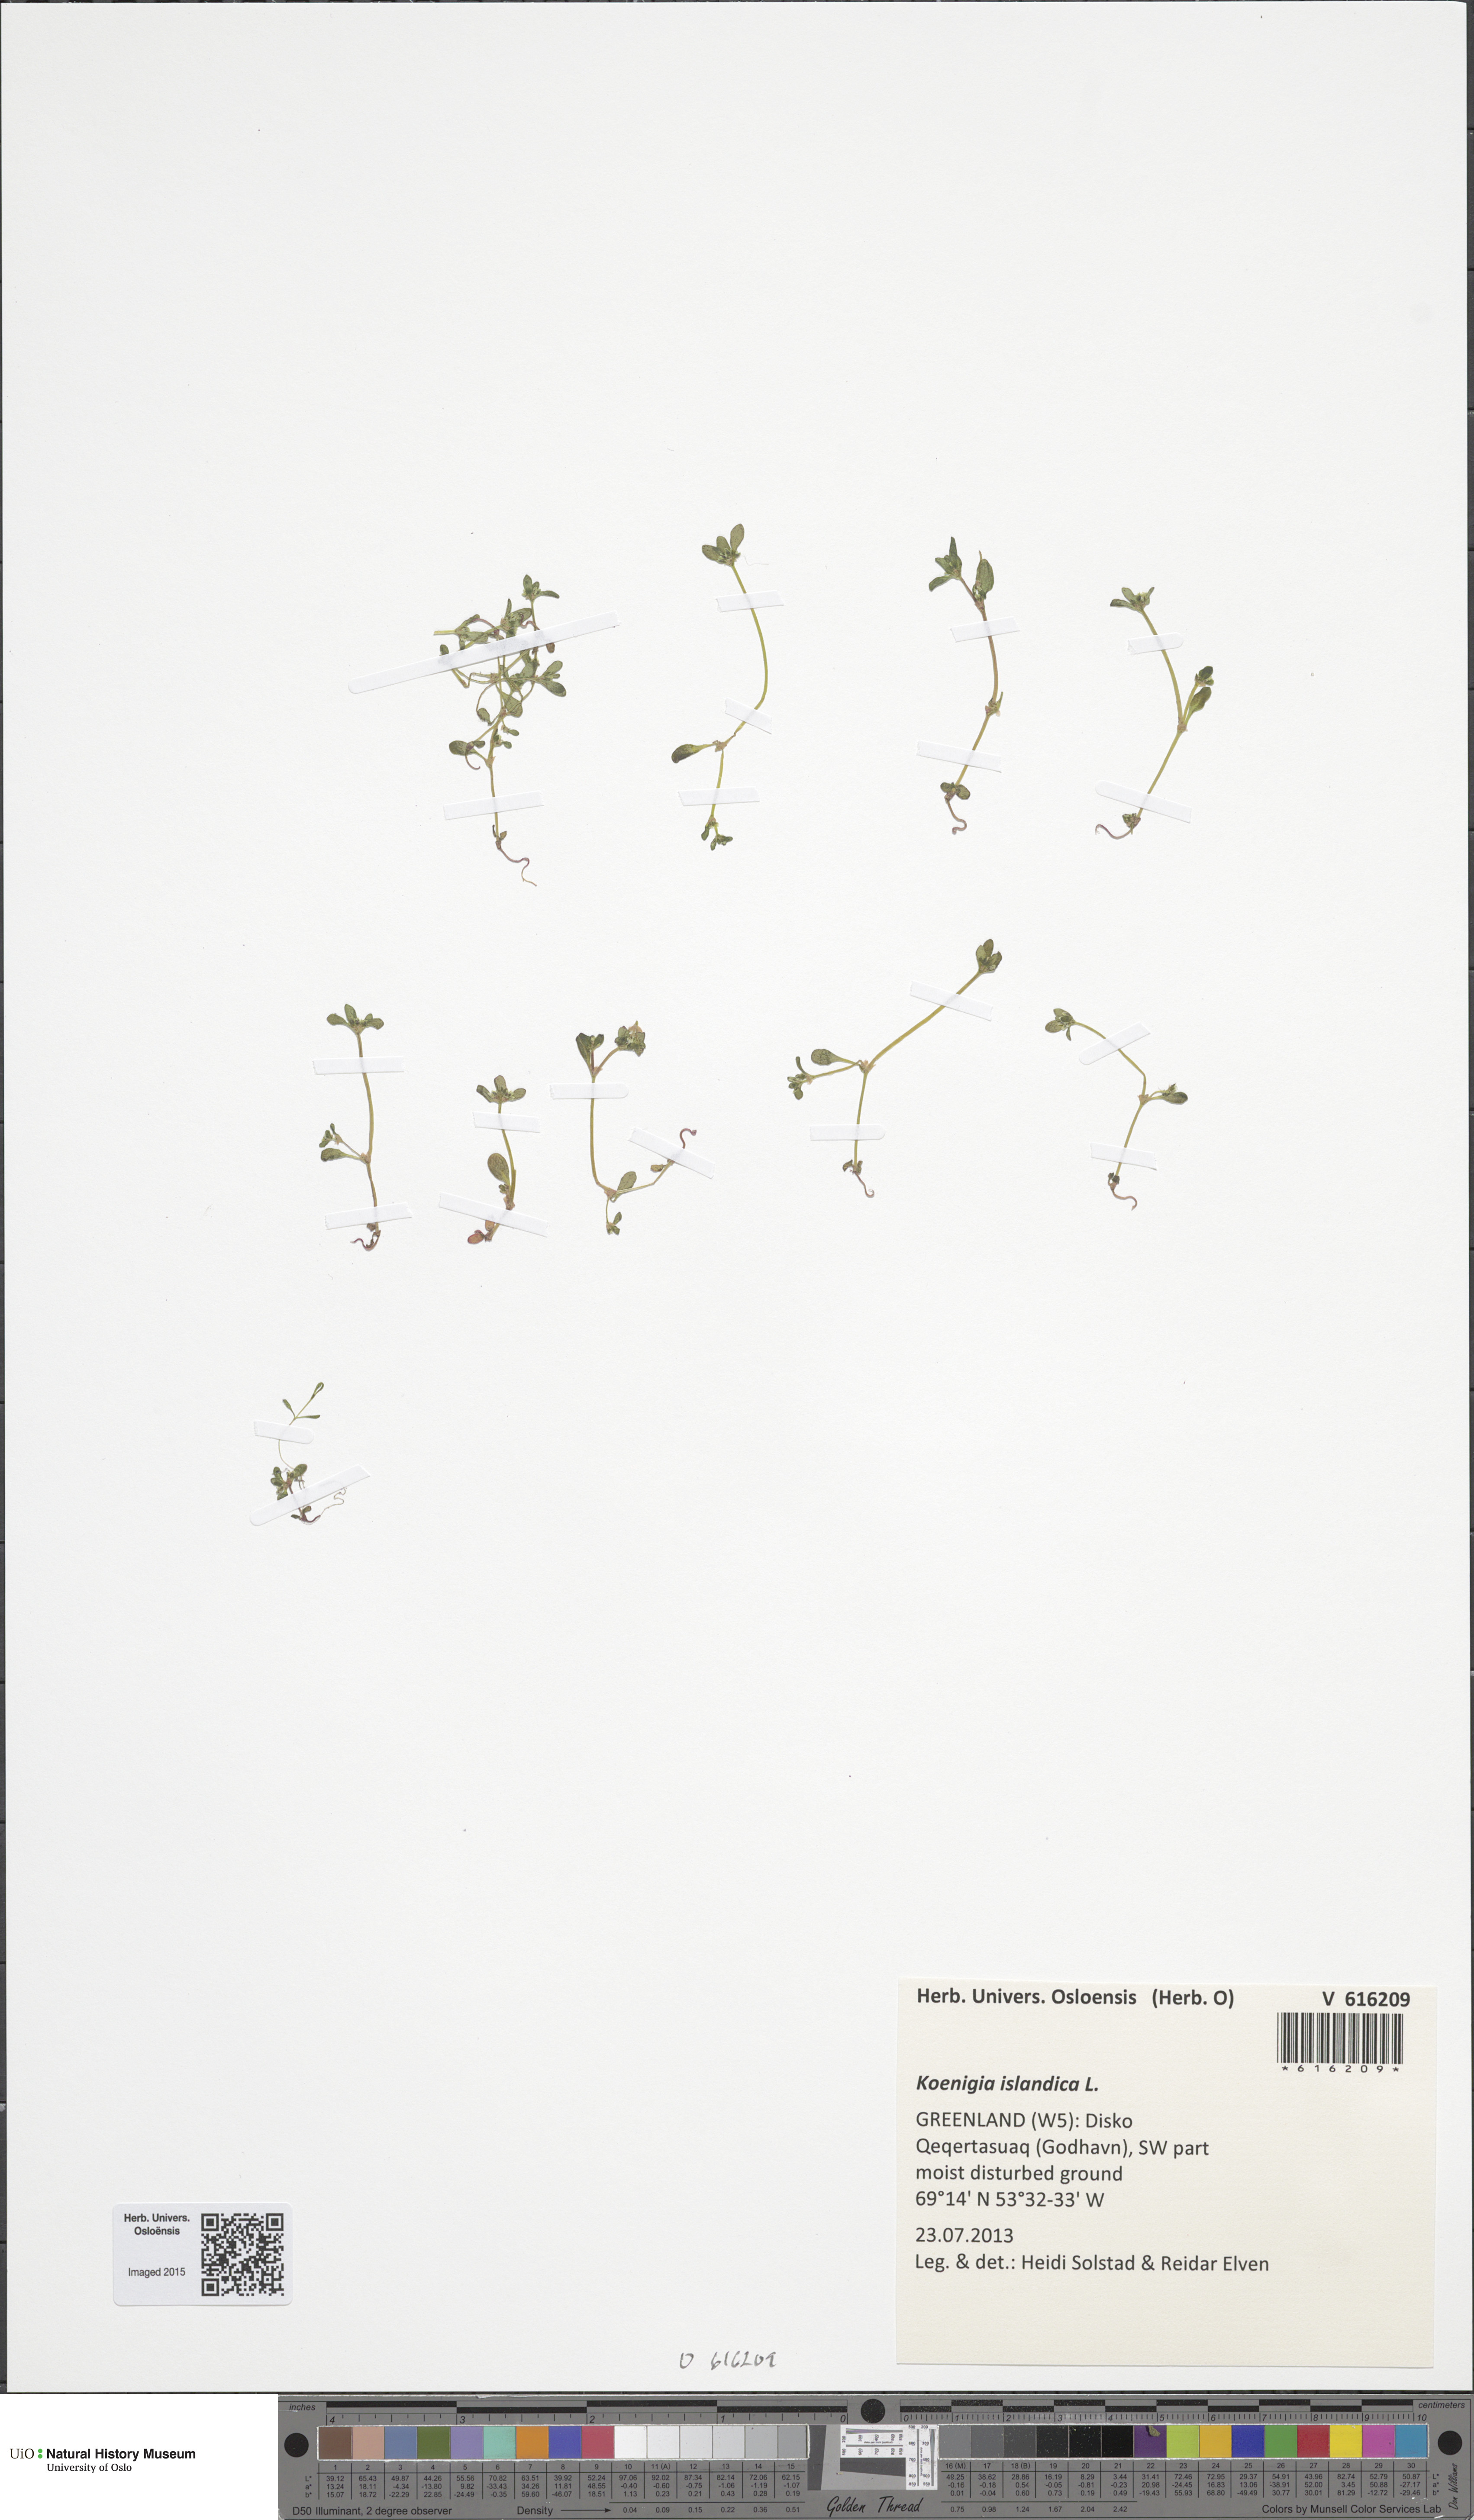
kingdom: Plantae
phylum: Tracheophyta
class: Magnoliopsida
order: Caryophyllales
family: Polygonaceae
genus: Koenigia
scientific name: Koenigia islandica
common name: Iceland-purslane
